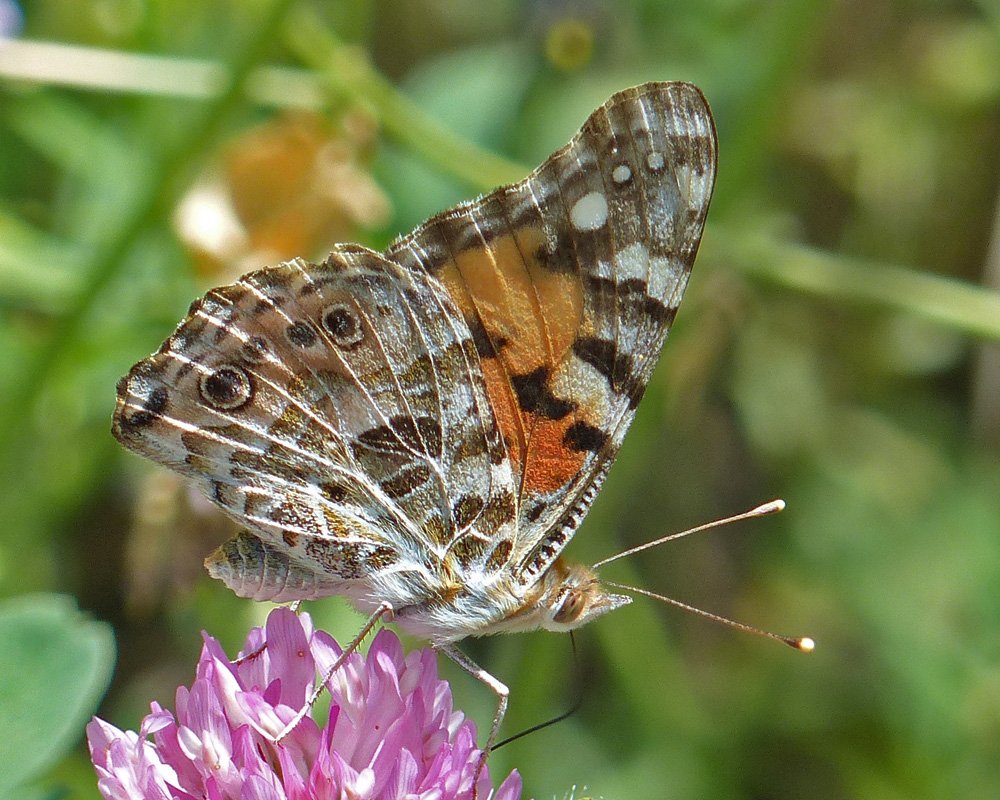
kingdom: Animalia
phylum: Arthropoda
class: Insecta
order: Lepidoptera
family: Nymphalidae
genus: Vanessa
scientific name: Vanessa cardui
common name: Painted Lady
